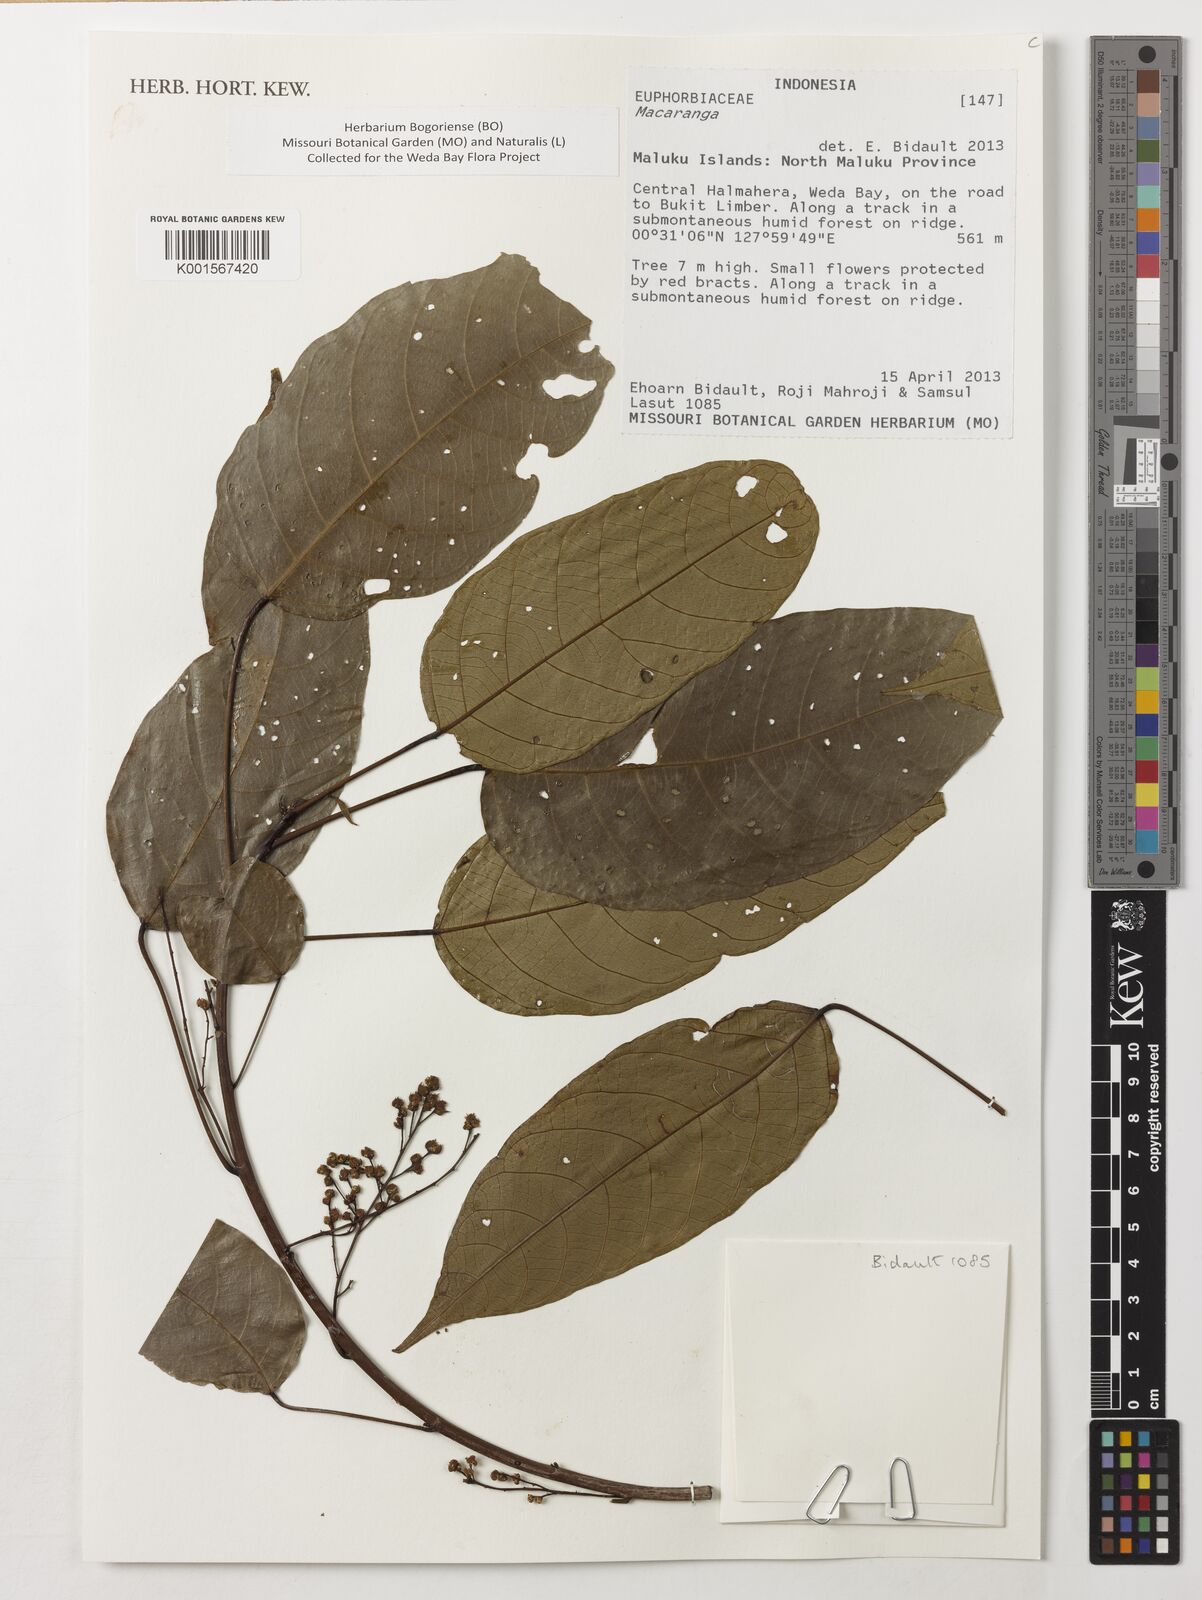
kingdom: Plantae
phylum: Tracheophyta
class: Magnoliopsida
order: Malpighiales
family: Euphorbiaceae
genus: Macaranga
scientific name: Macaranga
